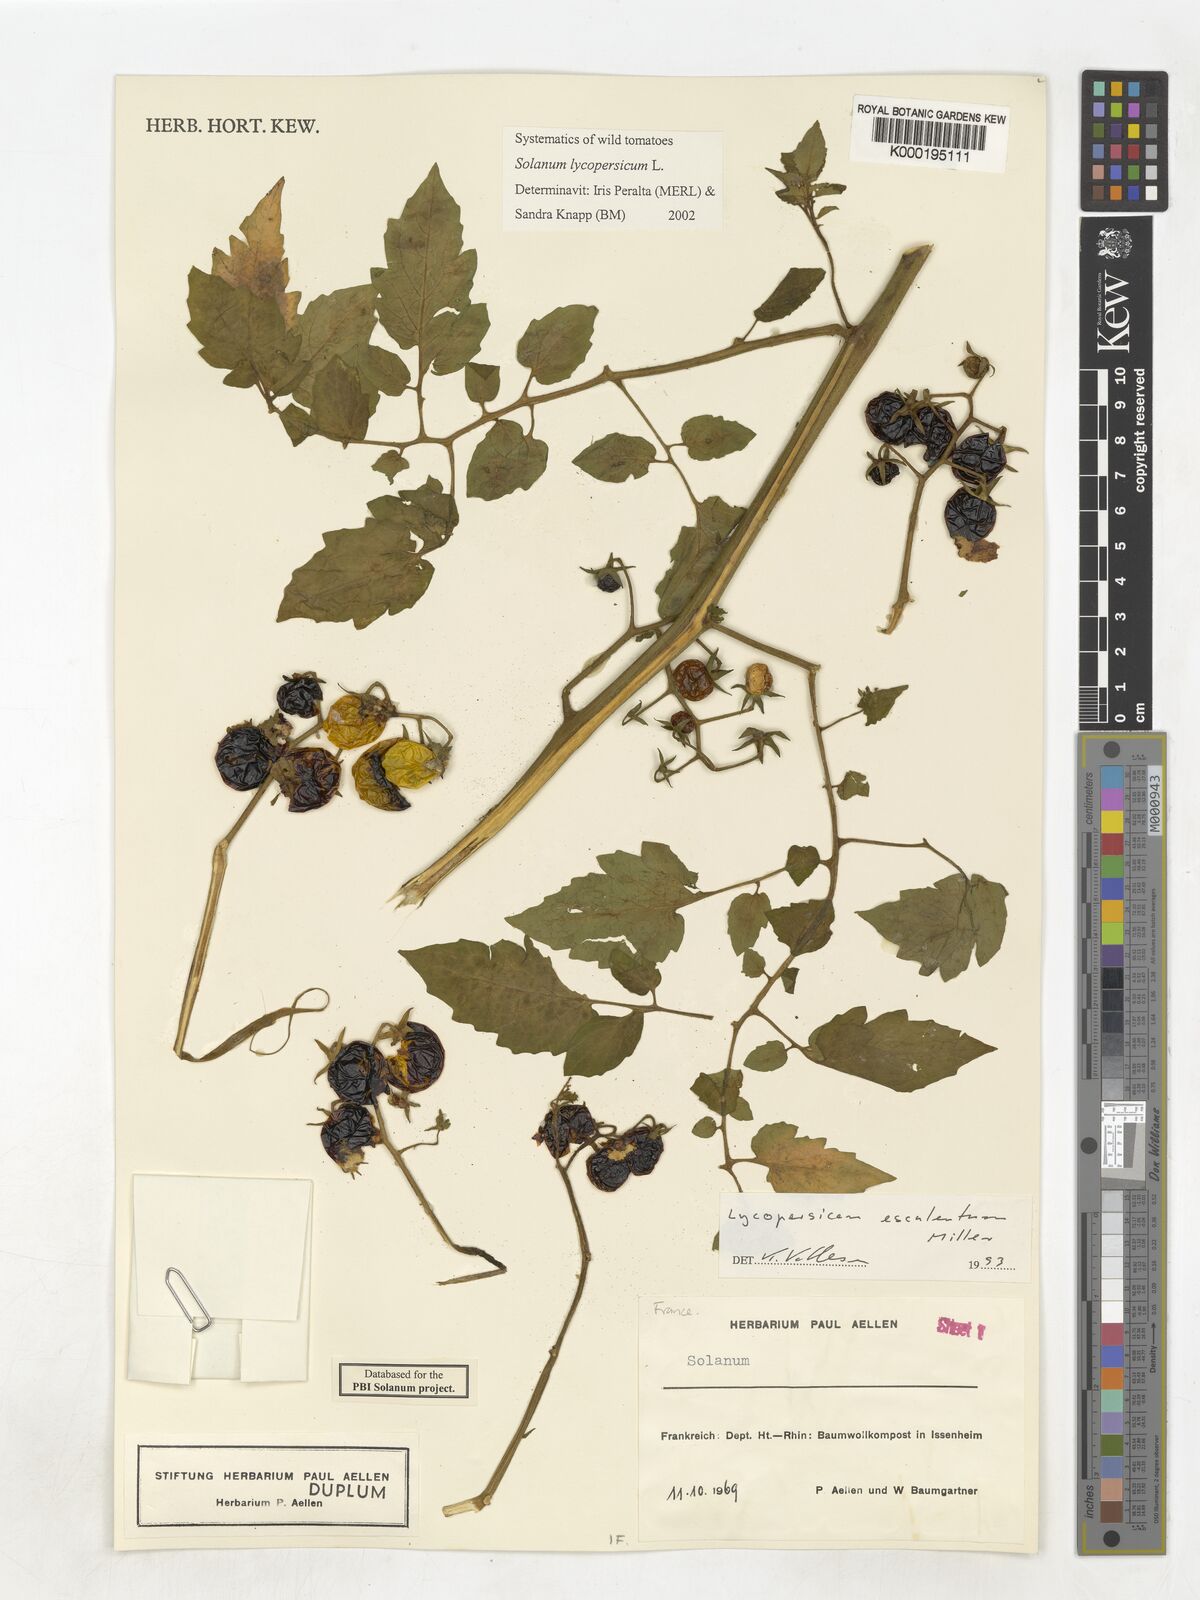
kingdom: Plantae
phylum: Tracheophyta
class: Magnoliopsida
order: Solanales
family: Solanaceae
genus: Solanum
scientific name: Solanum lycopersicum
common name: Garden tomato
